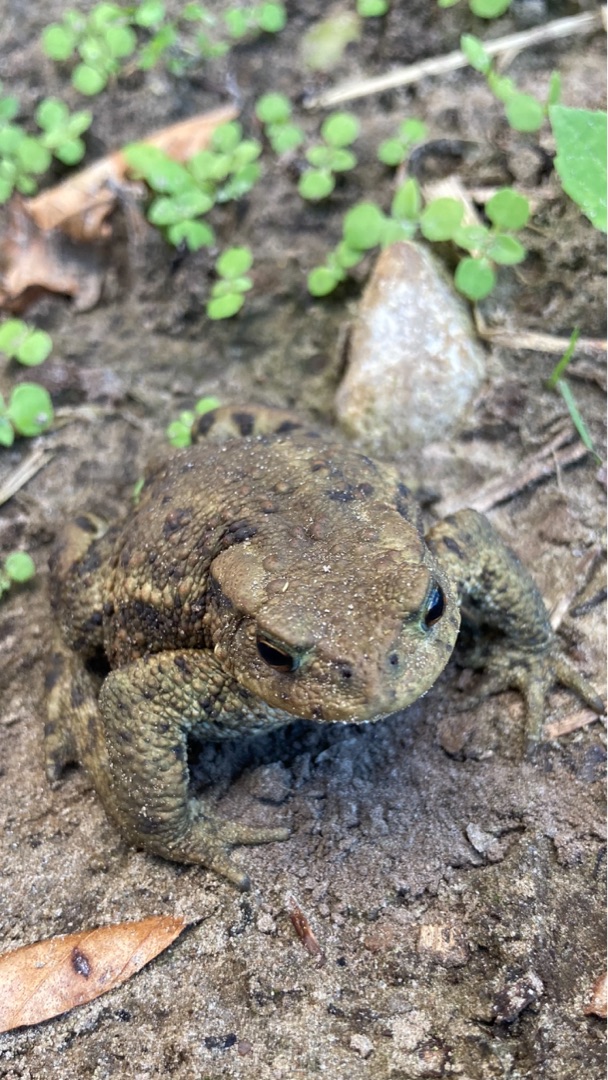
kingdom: Animalia
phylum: Chordata
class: Amphibia
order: Anura
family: Bufonidae
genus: Bufo
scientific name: Bufo bufo
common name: Skrubtudse
